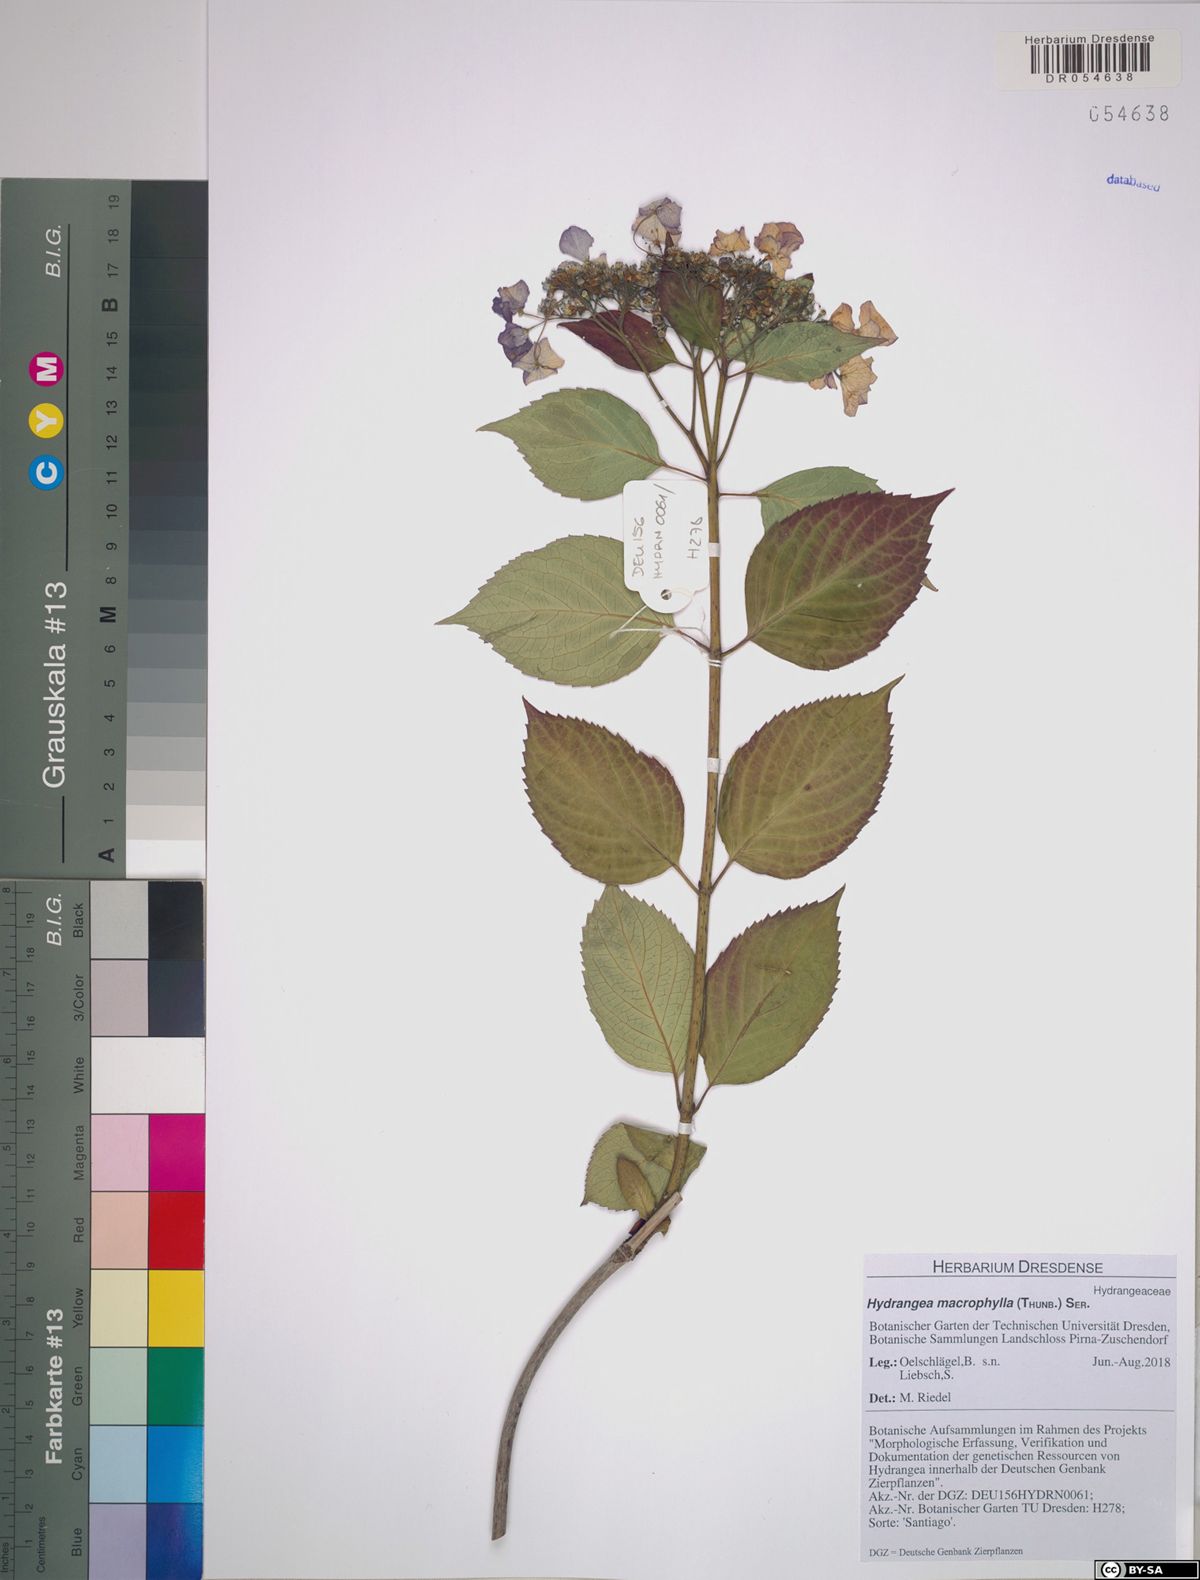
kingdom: Plantae
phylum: Tracheophyta
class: Magnoliopsida
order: Cornales
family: Hydrangeaceae
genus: Hydrangea
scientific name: Hydrangea macrophylla
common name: Hydrangea
